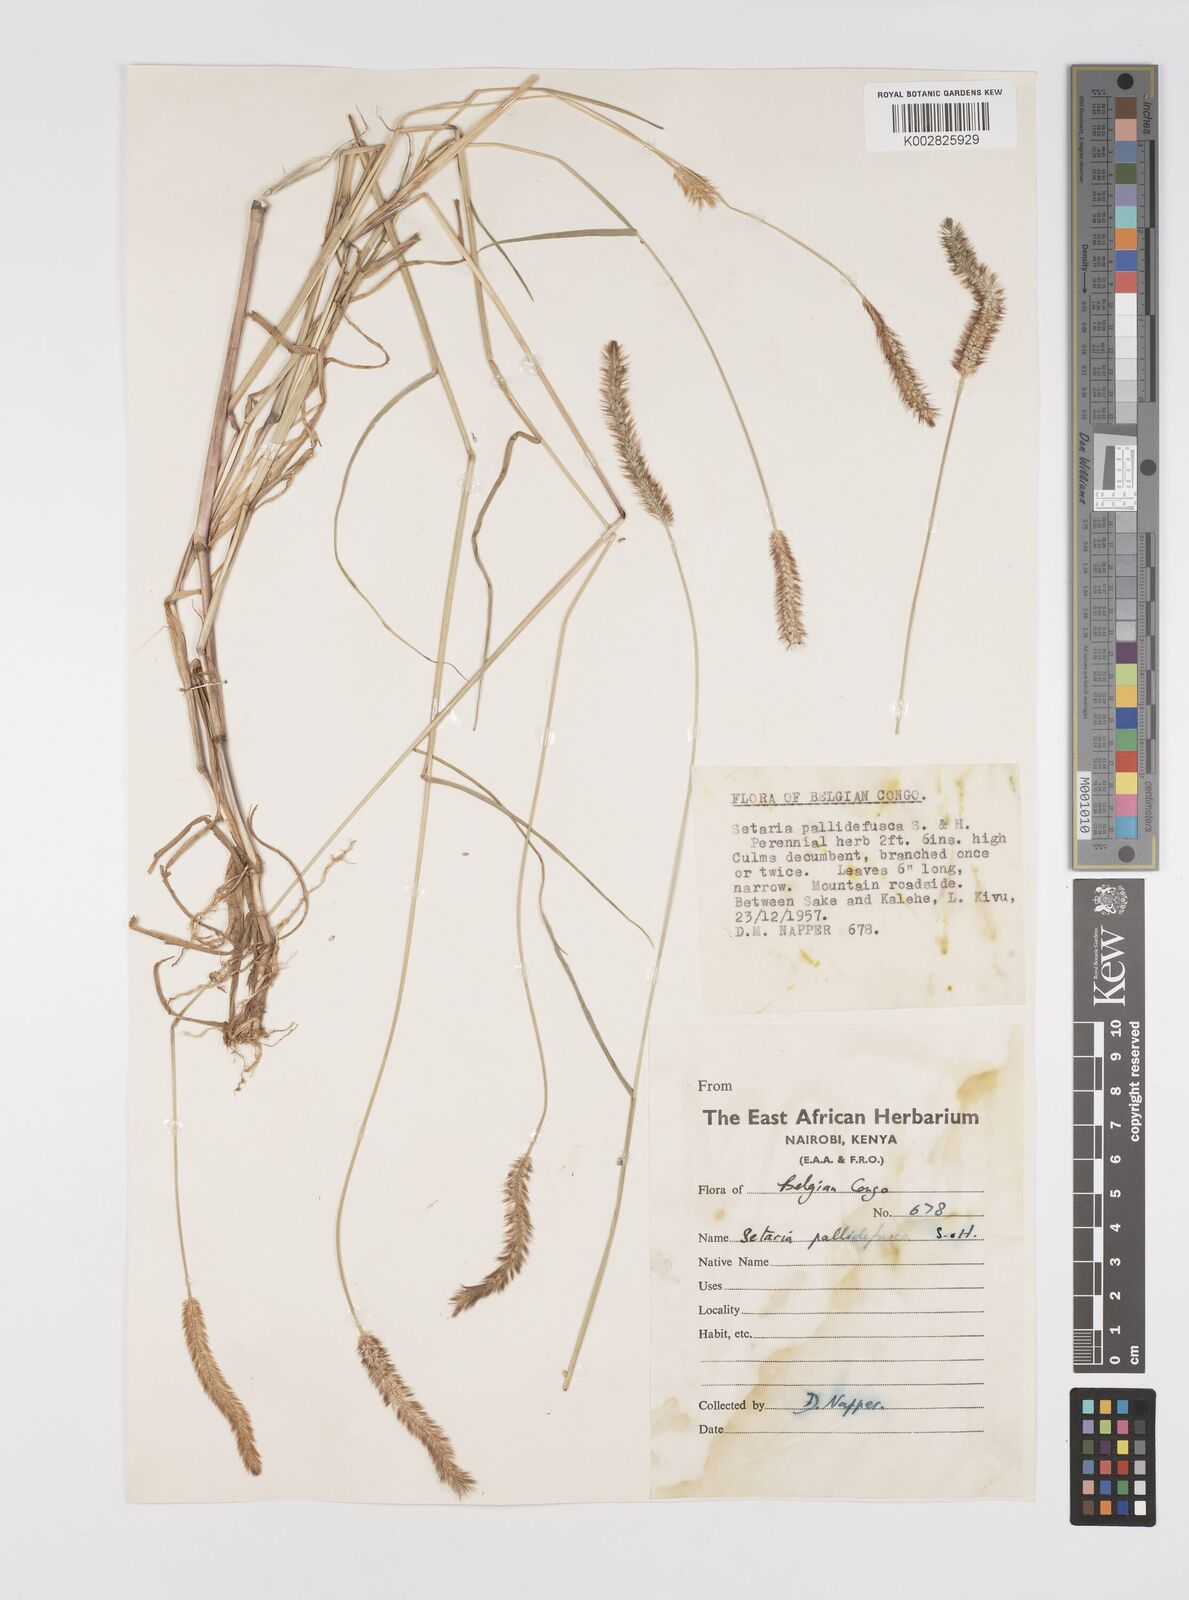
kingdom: Plantae
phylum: Tracheophyta
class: Liliopsida
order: Poales
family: Poaceae
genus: Setaria
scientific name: Setaria pumila
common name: Yellow bristle-grass
